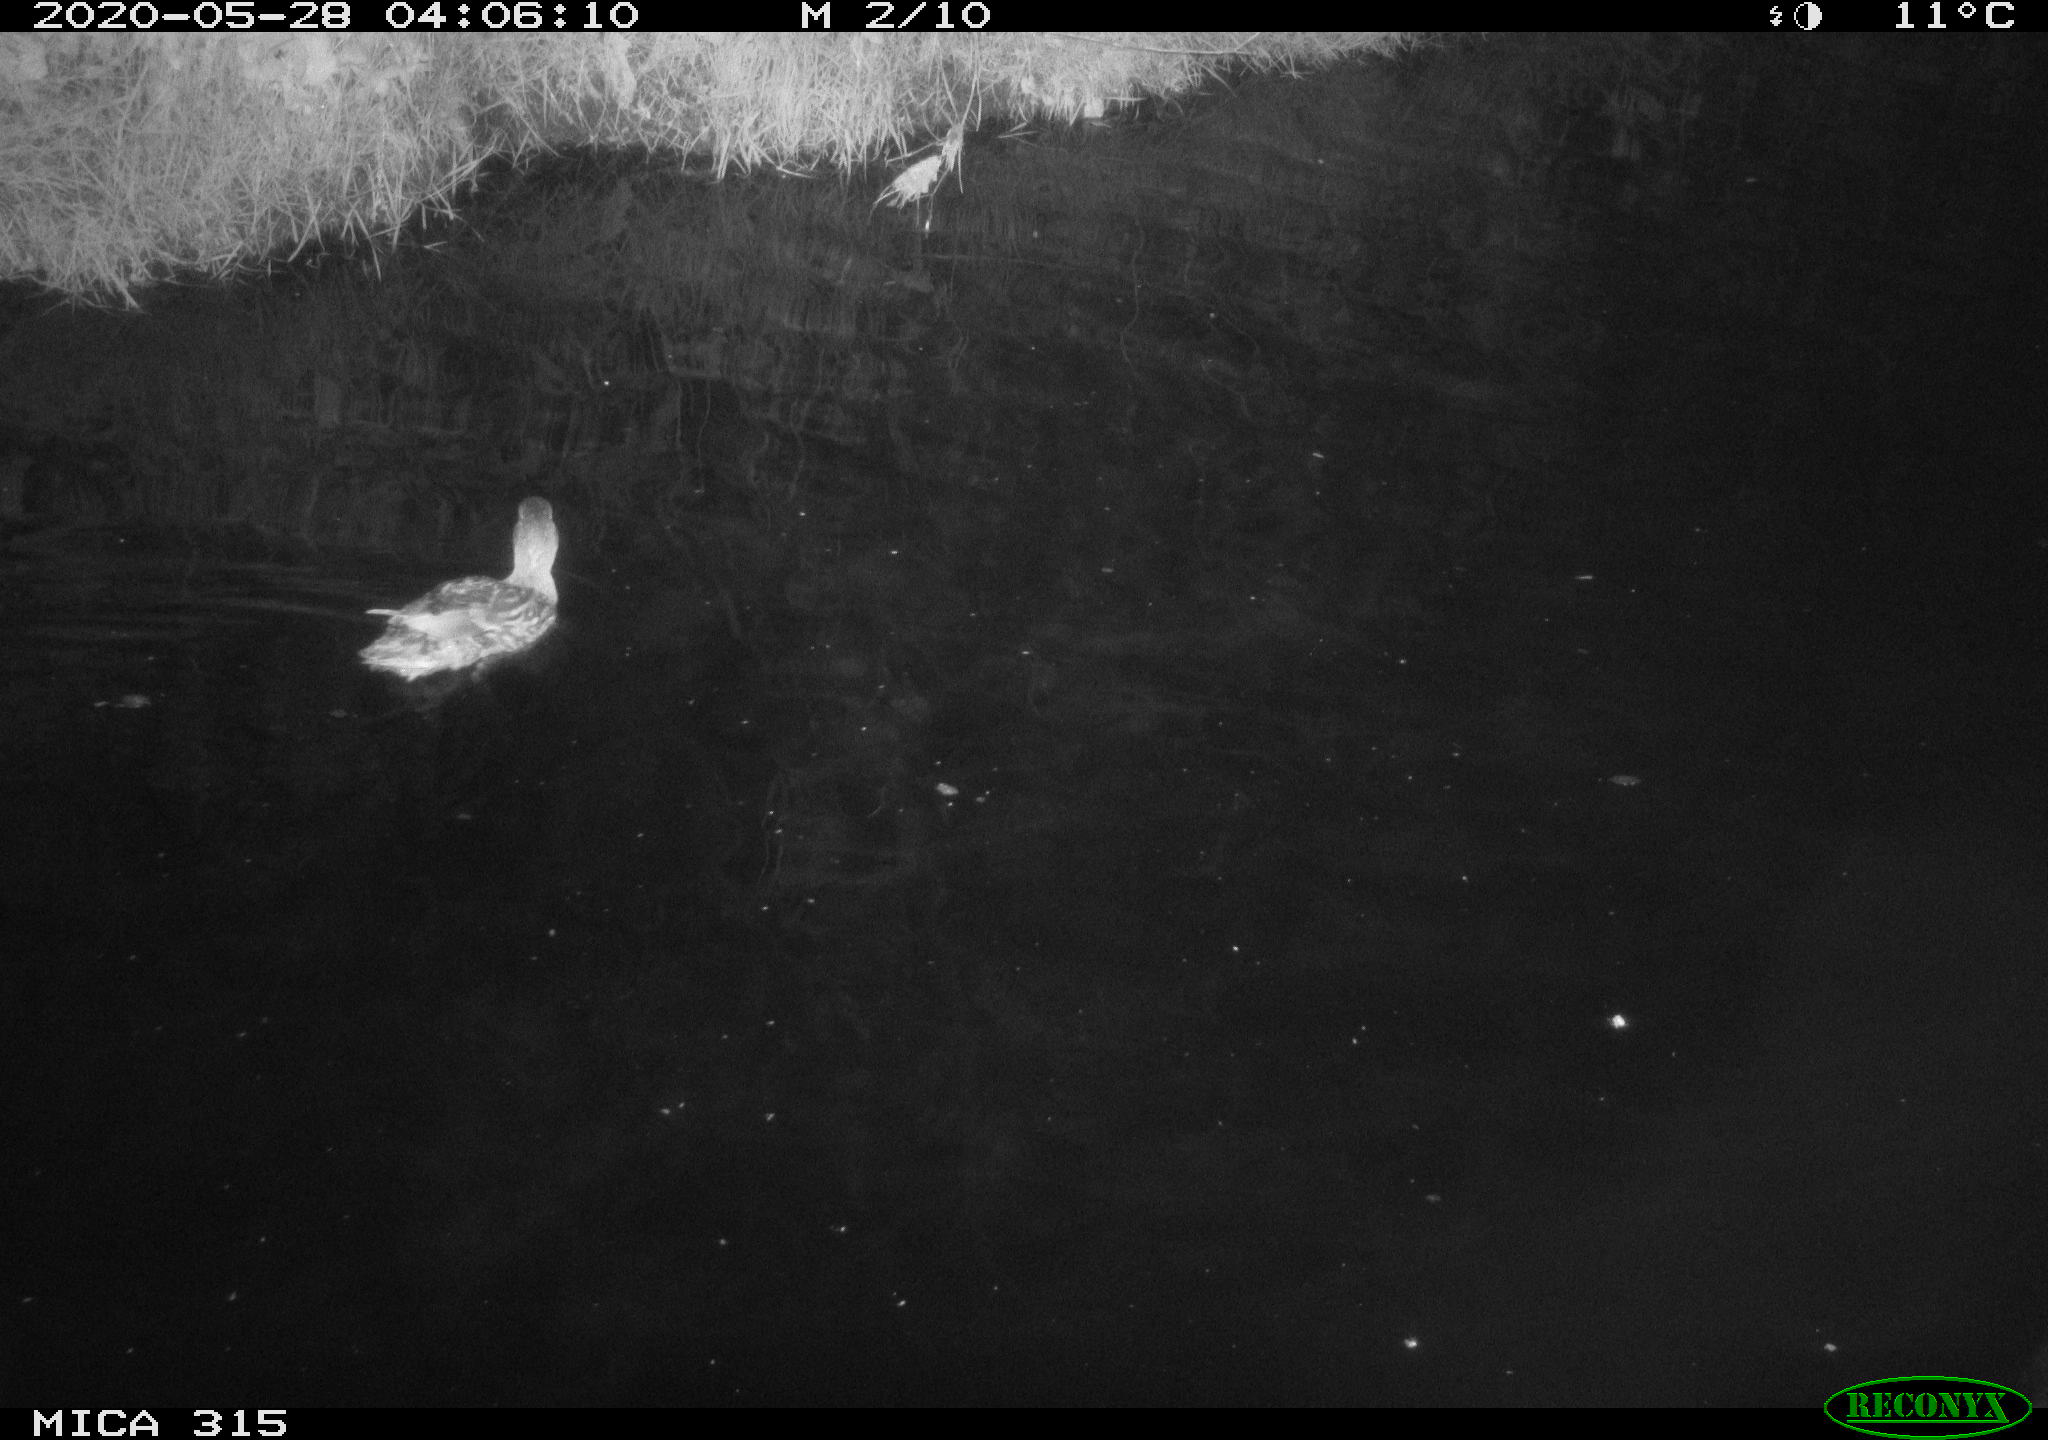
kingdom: Animalia
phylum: Chordata
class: Aves
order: Anseriformes
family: Anatidae
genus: Anas
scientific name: Anas platyrhynchos
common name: Mallard
